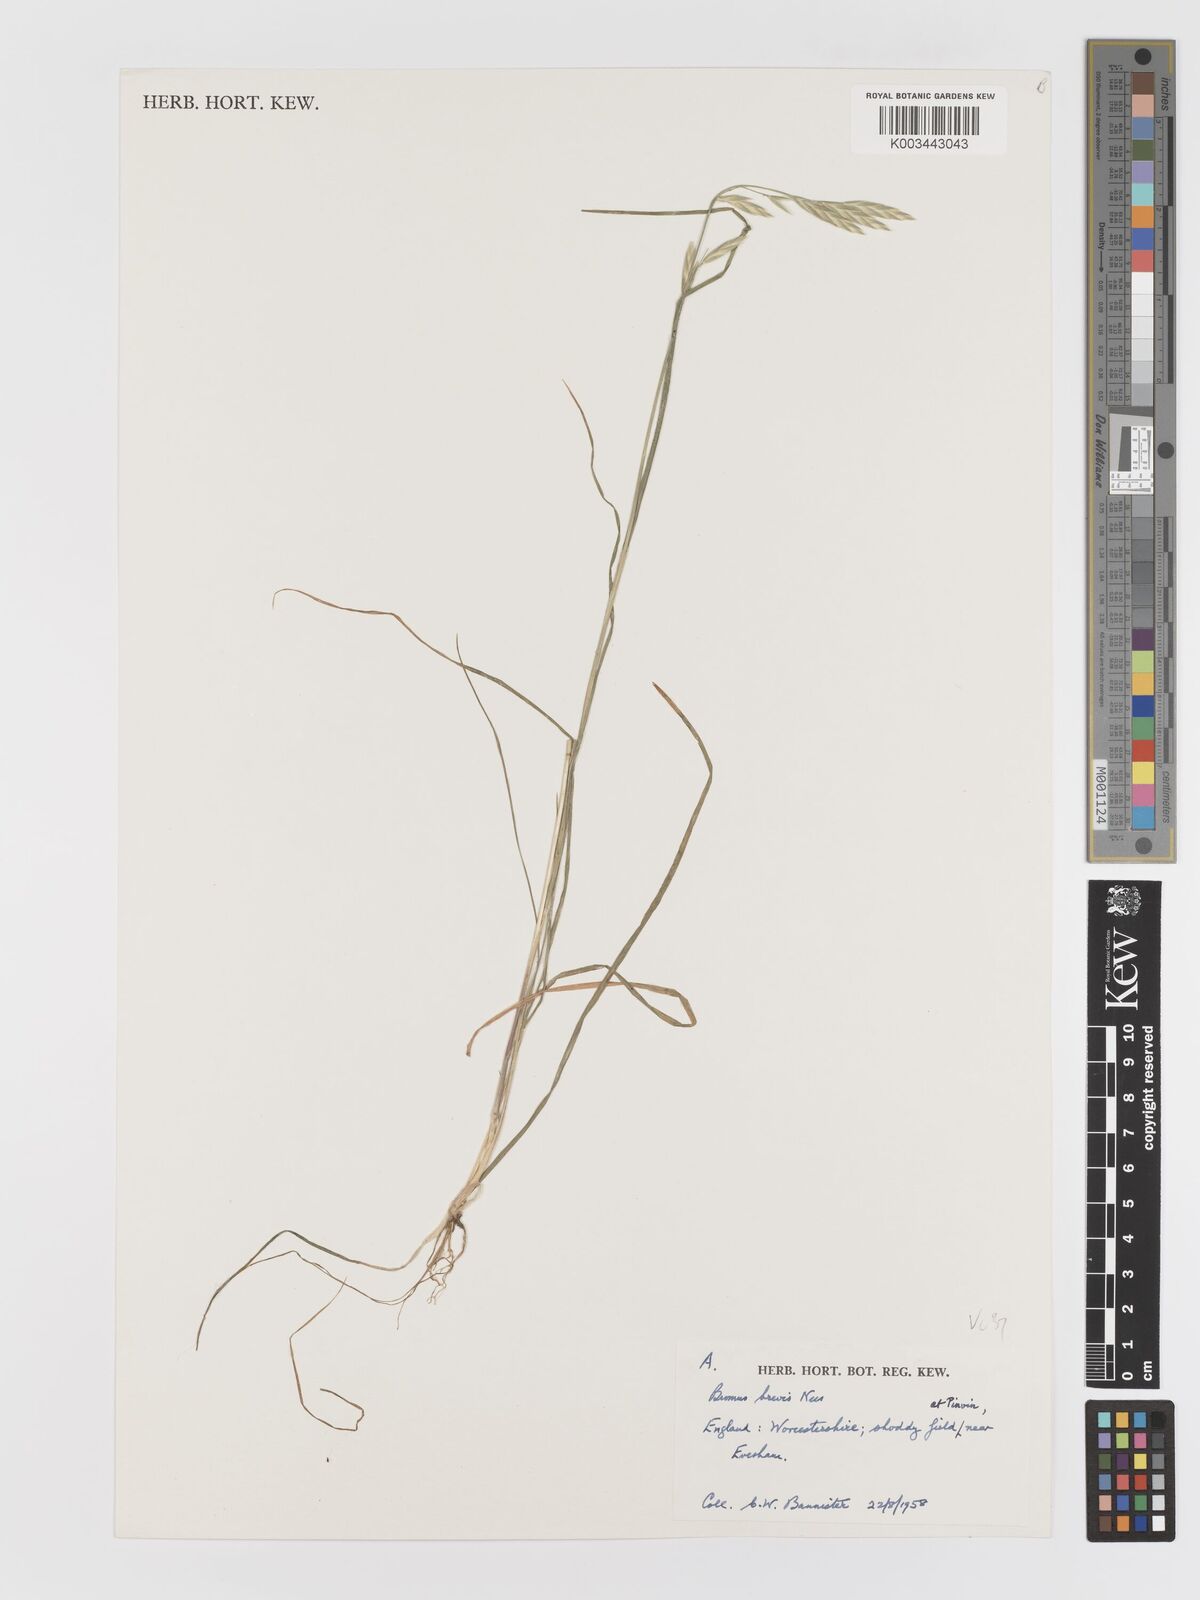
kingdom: Plantae
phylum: Tracheophyta
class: Liliopsida
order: Poales
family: Poaceae
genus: Bromus
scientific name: Bromus catharticus
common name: Rescuegrass
